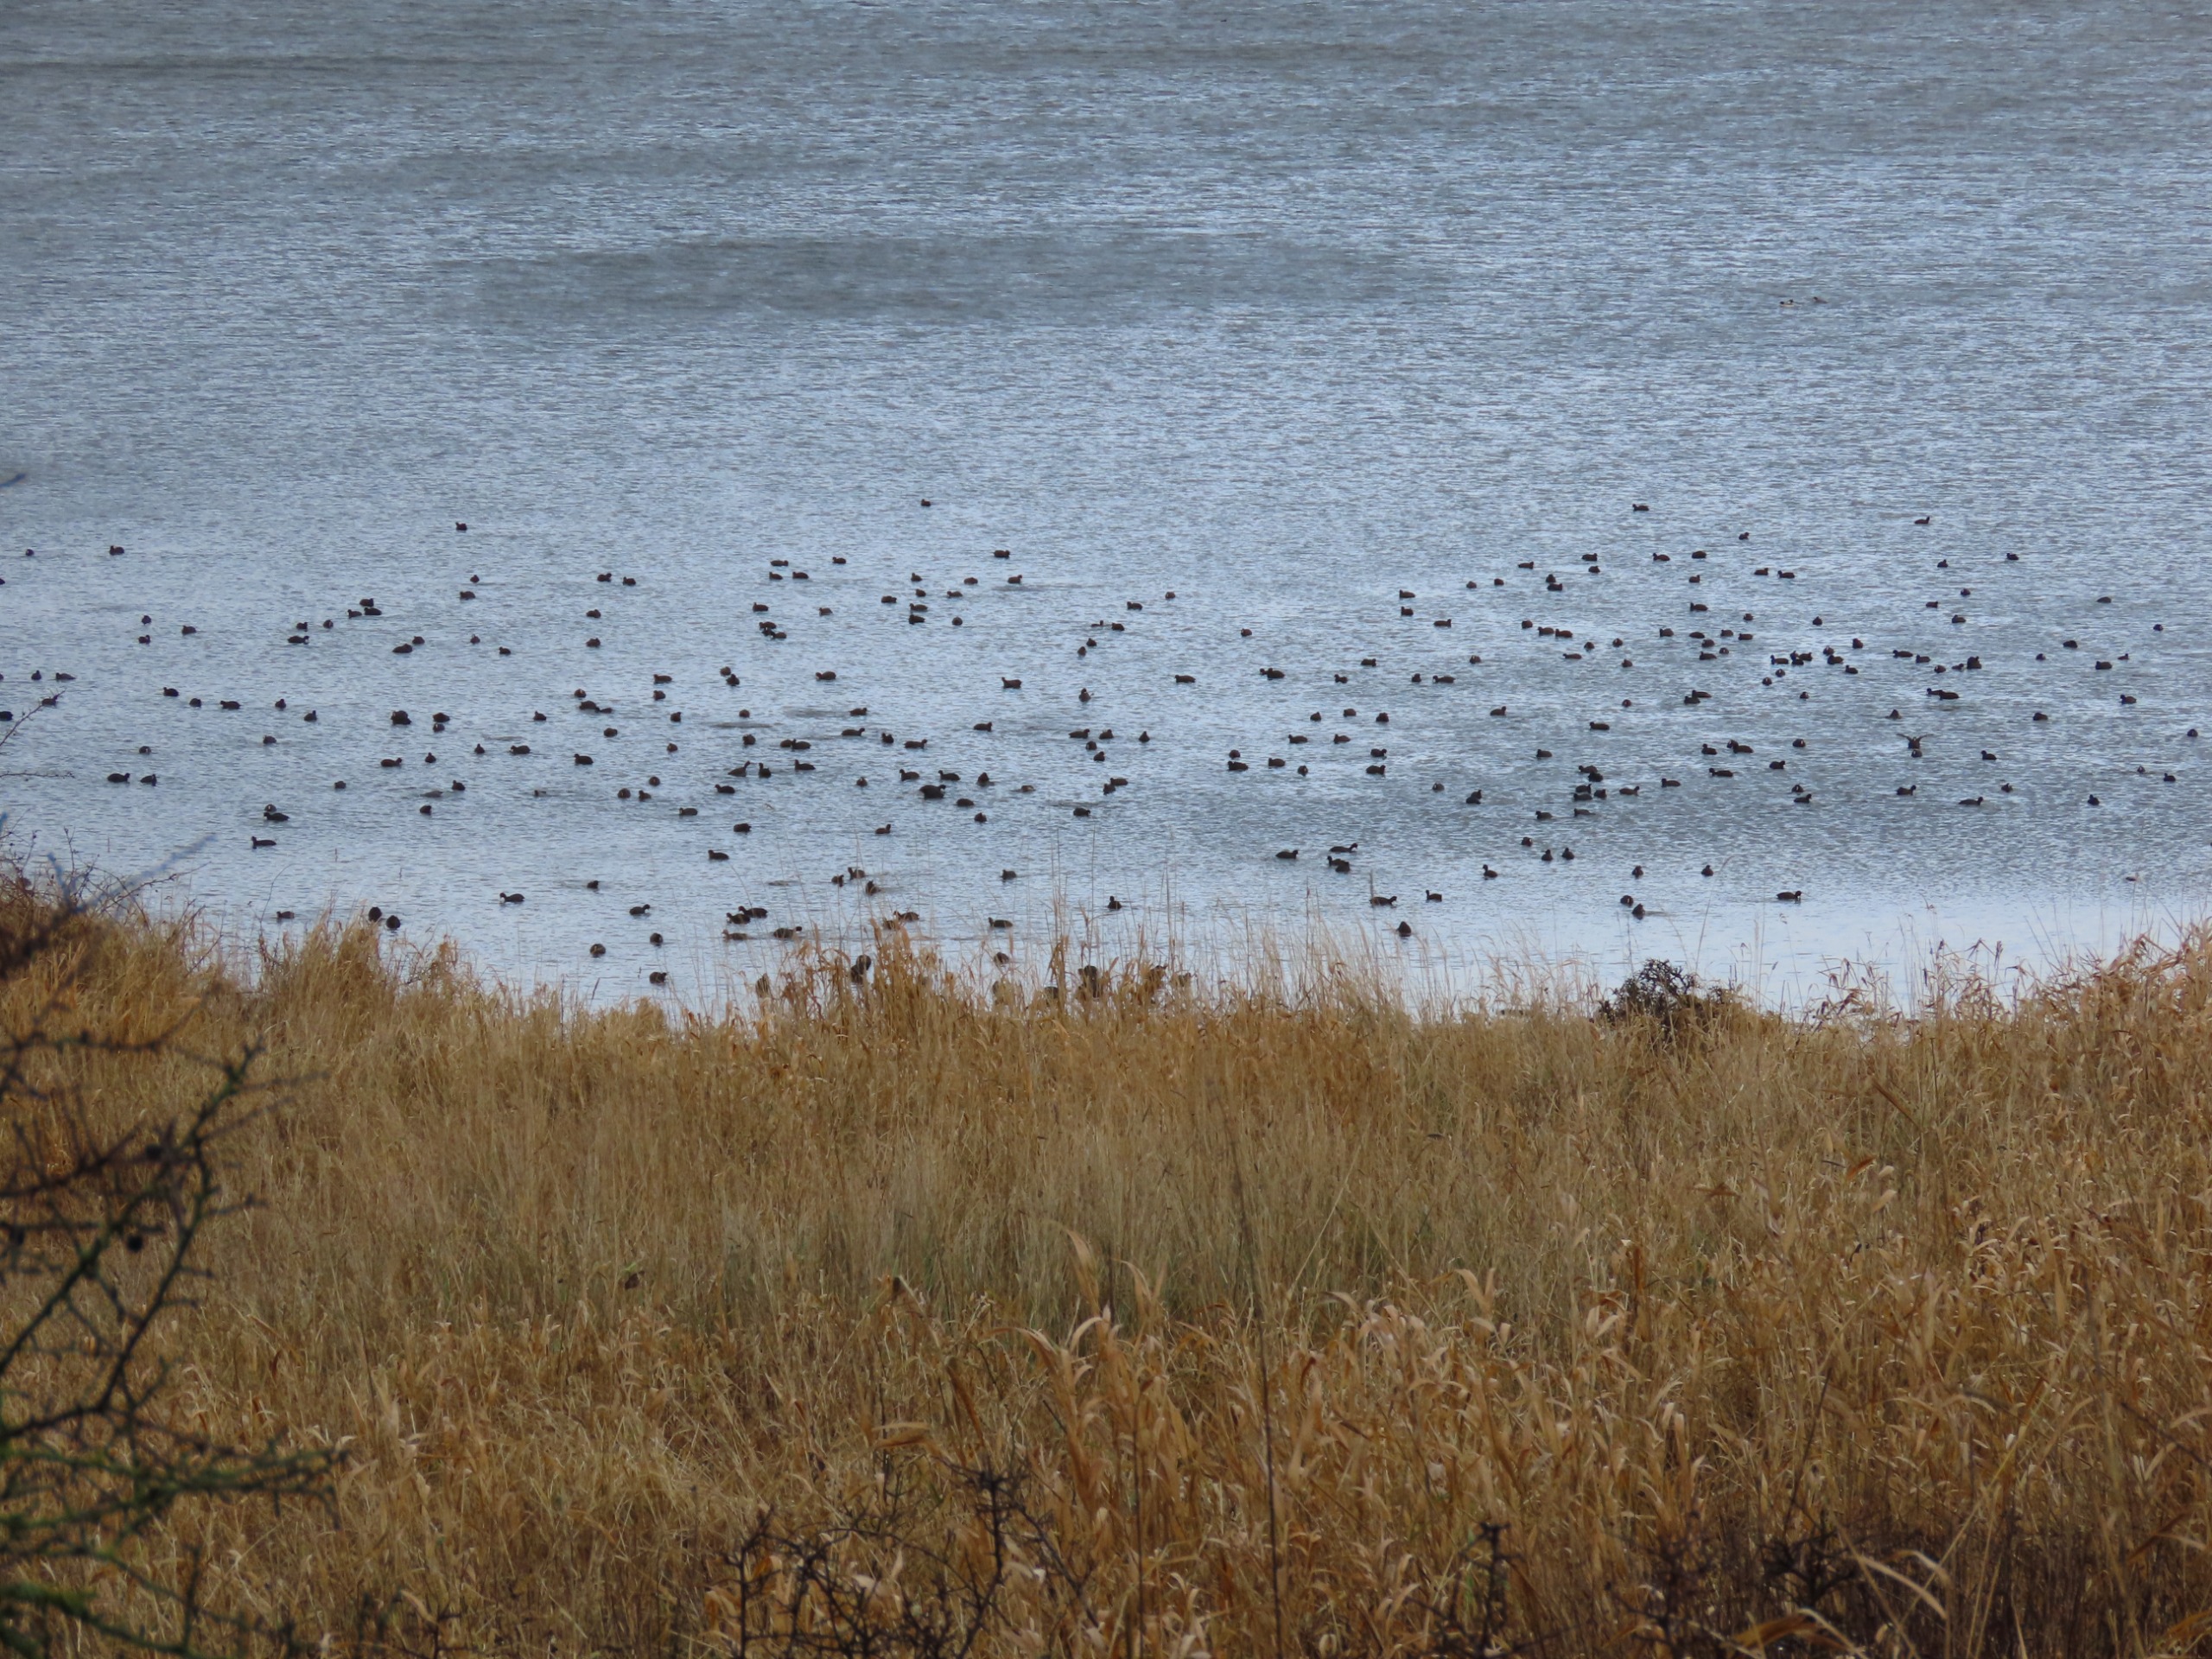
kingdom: Animalia
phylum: Chordata
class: Aves
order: Gruiformes
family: Rallidae
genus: Fulica
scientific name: Fulica atra
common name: Blishøne
